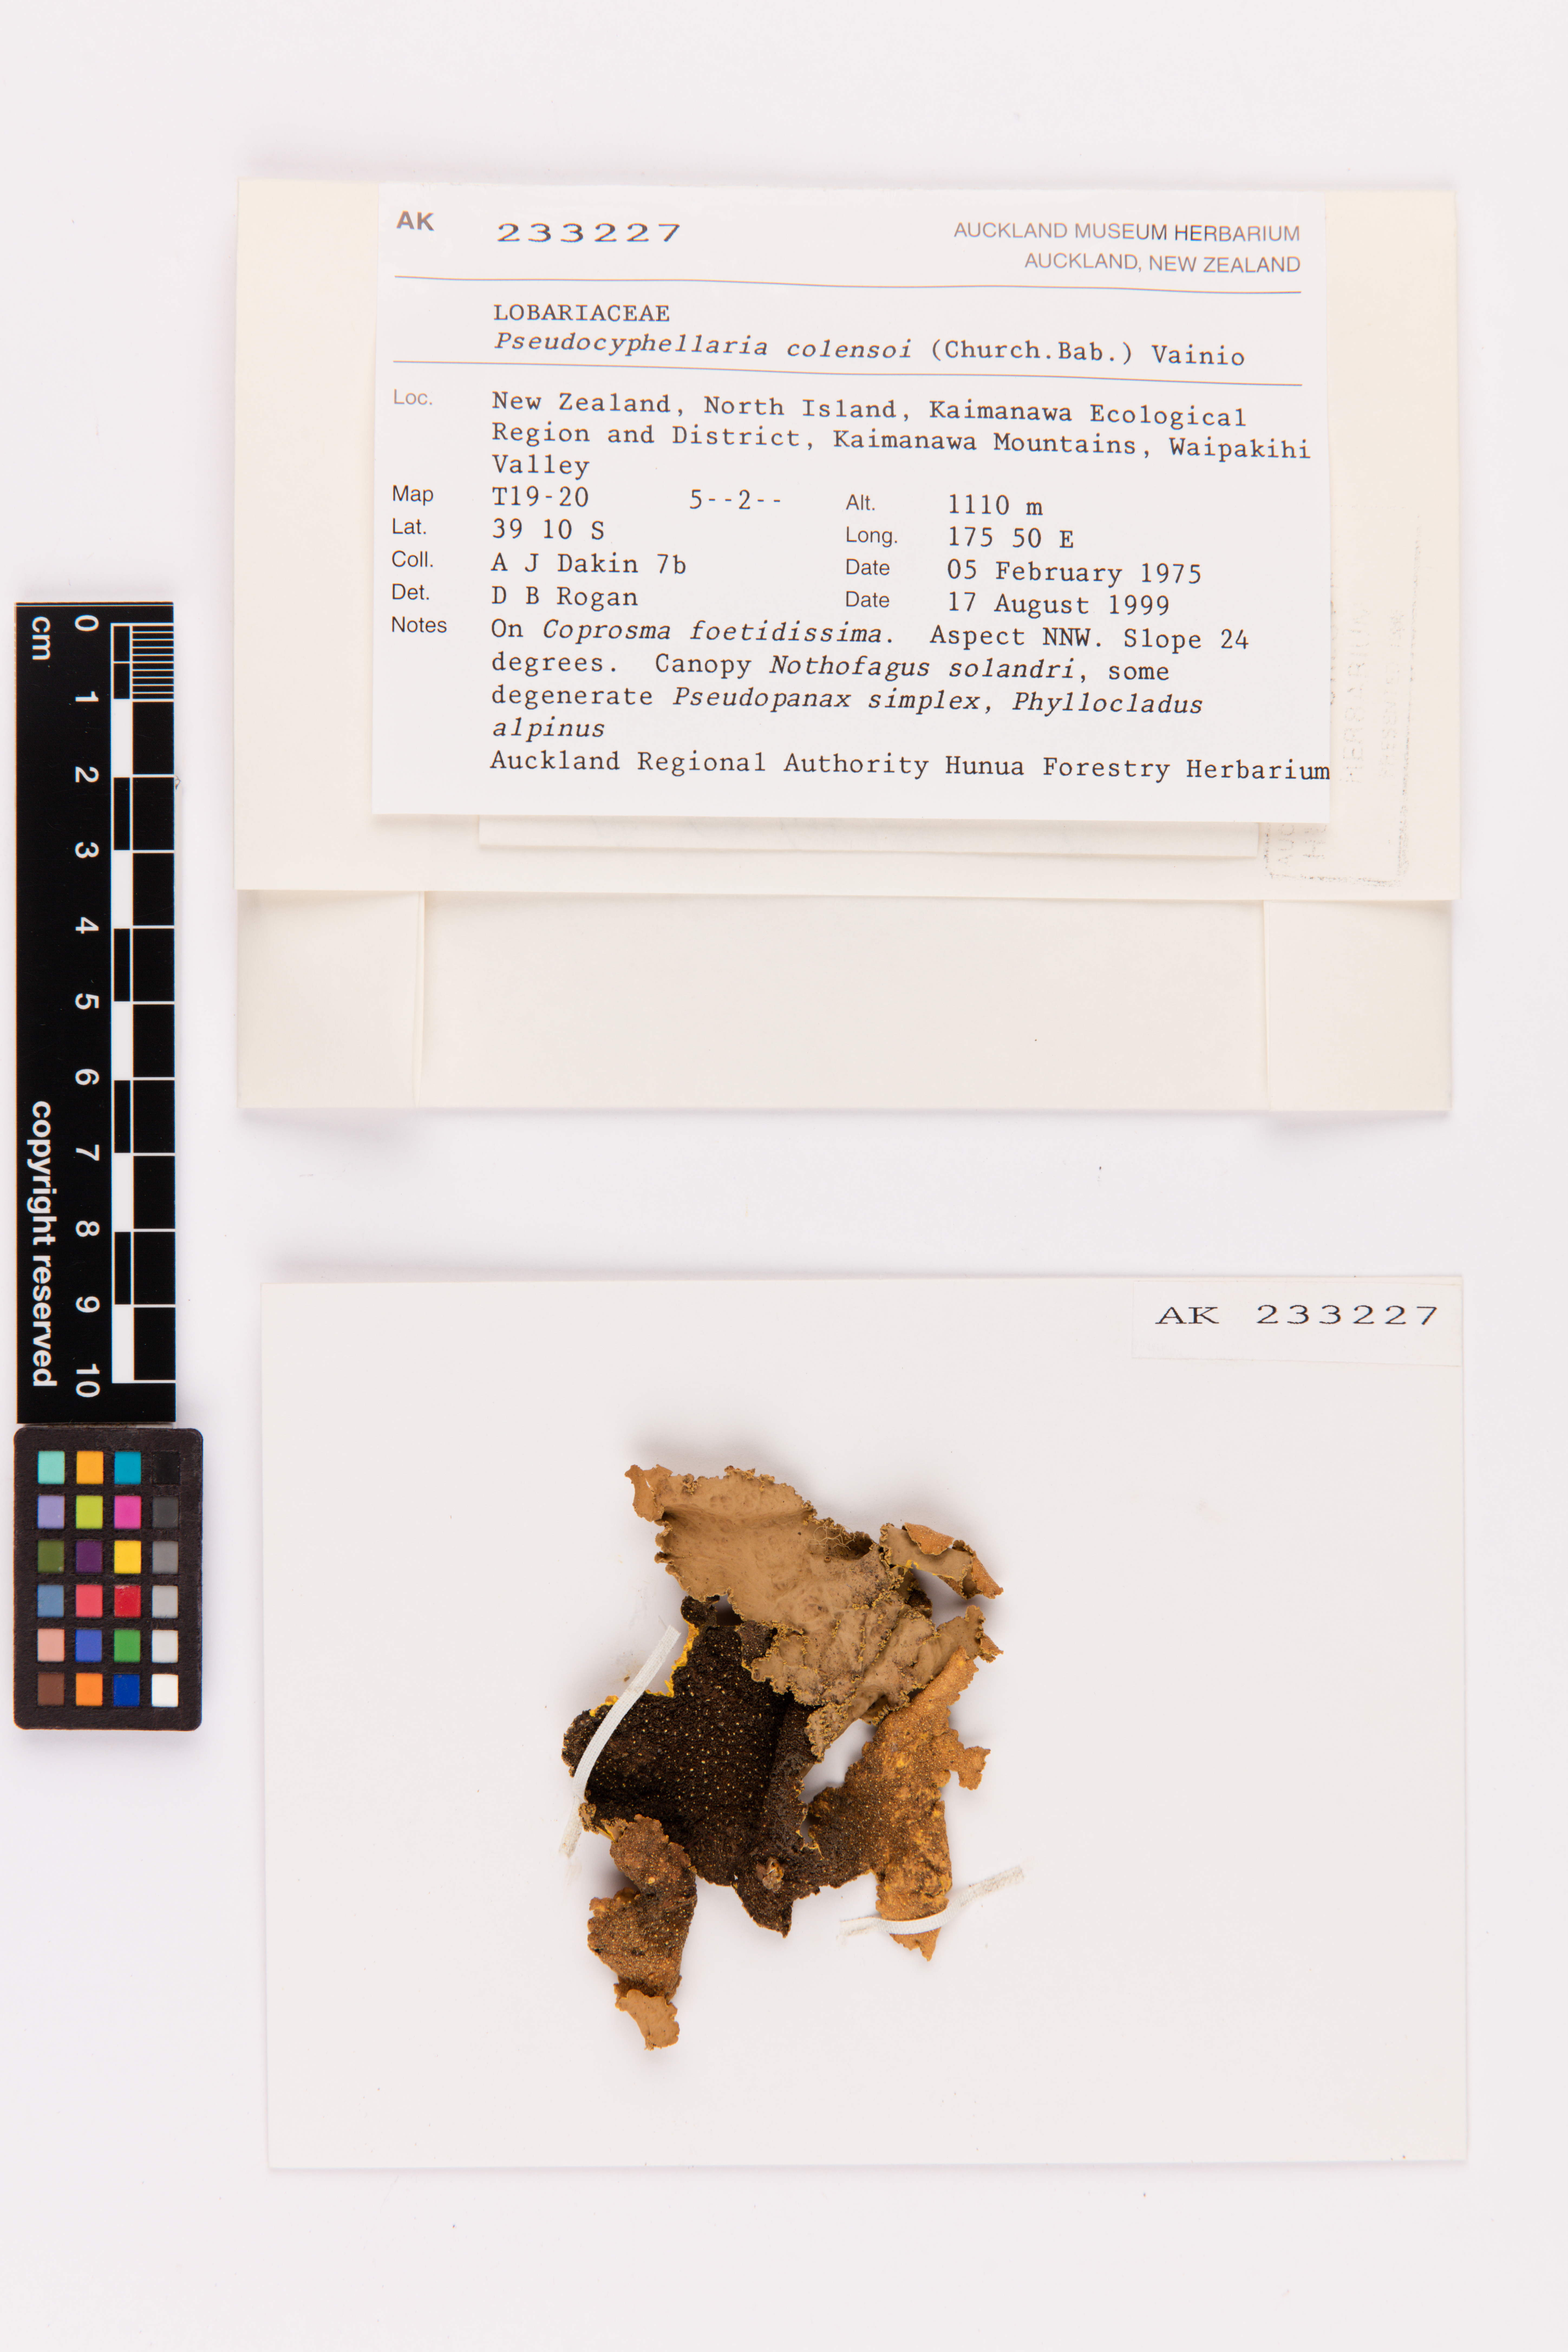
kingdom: Fungi
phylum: Ascomycota
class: Lecanoromycetes
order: Peltigerales
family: Lobariaceae
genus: Yarrumia
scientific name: Yarrumia colensoi
